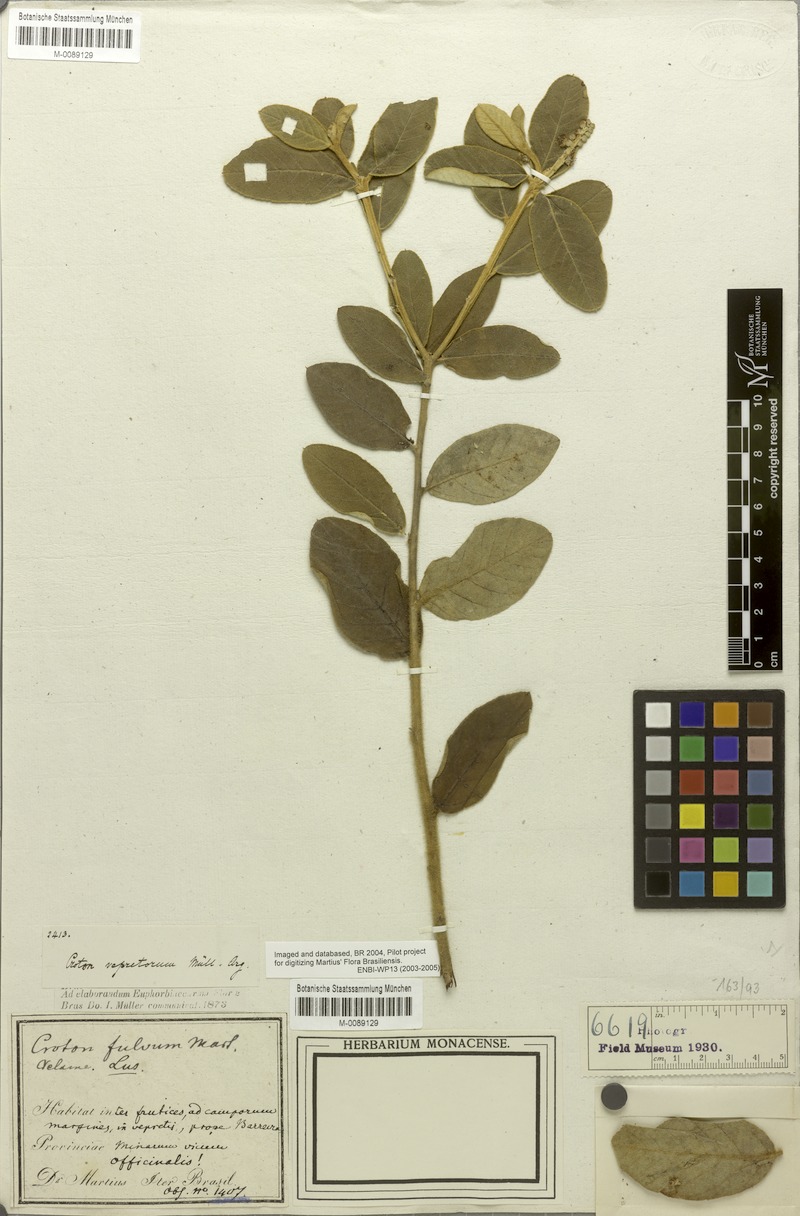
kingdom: Plantae
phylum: Tracheophyta
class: Magnoliopsida
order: Malpighiales
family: Euphorbiaceae
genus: Croton
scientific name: Croton fulvus
